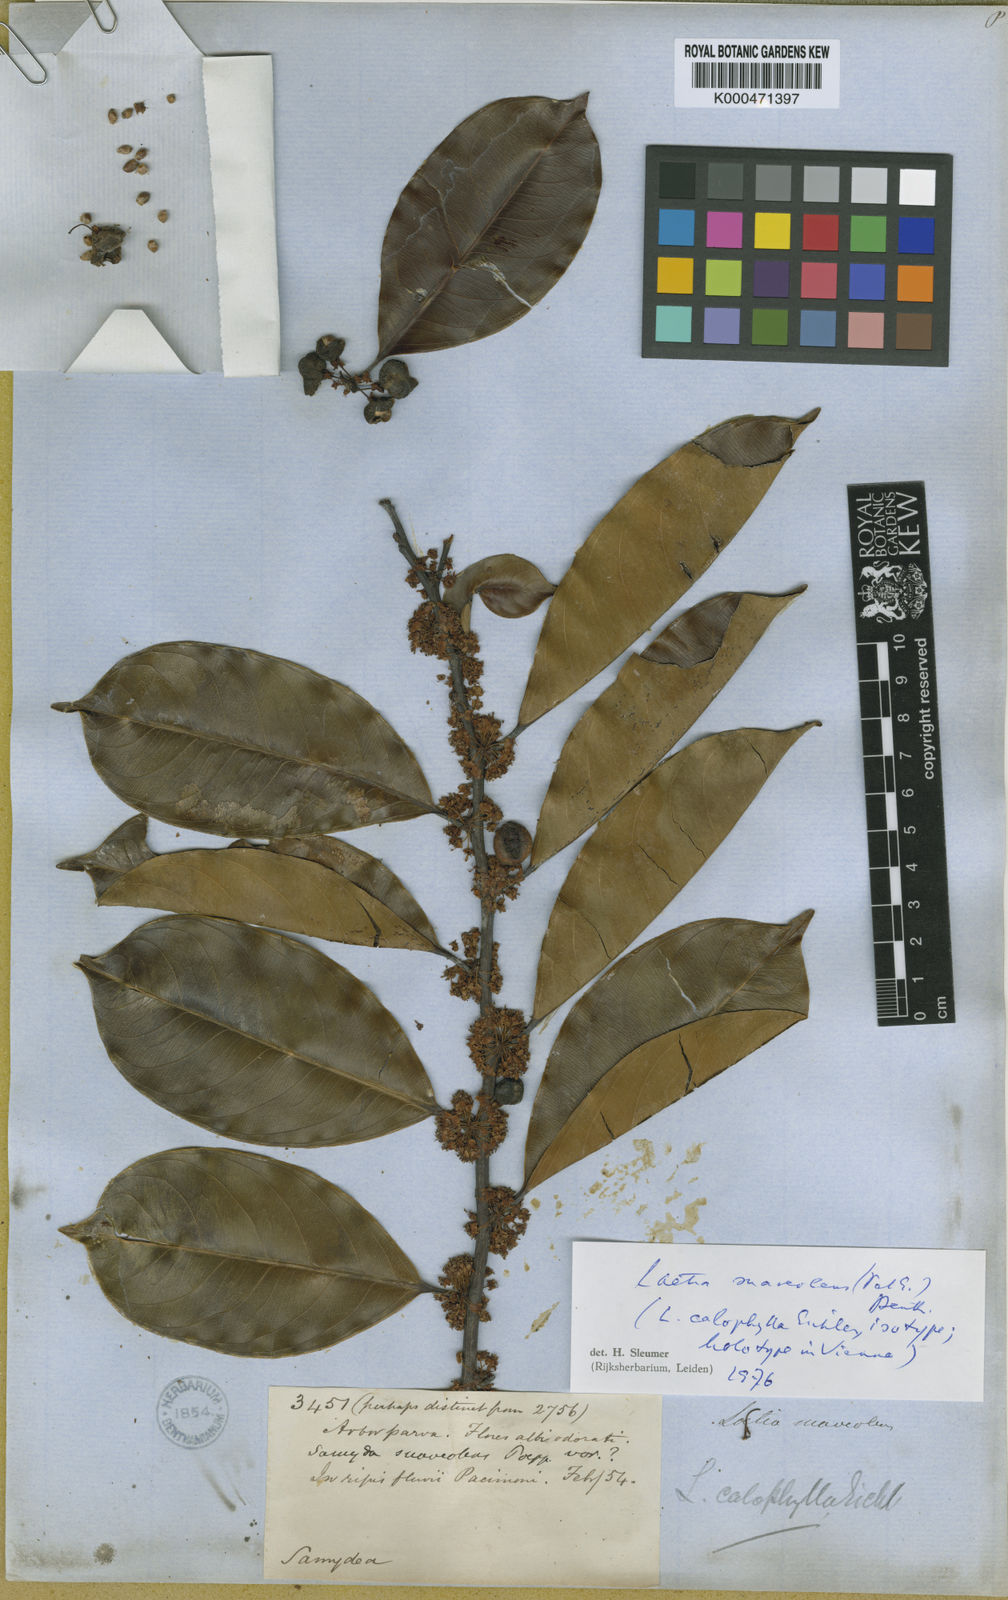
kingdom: Plantae
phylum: Tracheophyta
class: Magnoliopsida
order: Malpighiales
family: Salicaceae
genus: Casearia
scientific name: Casearia suaveolens
